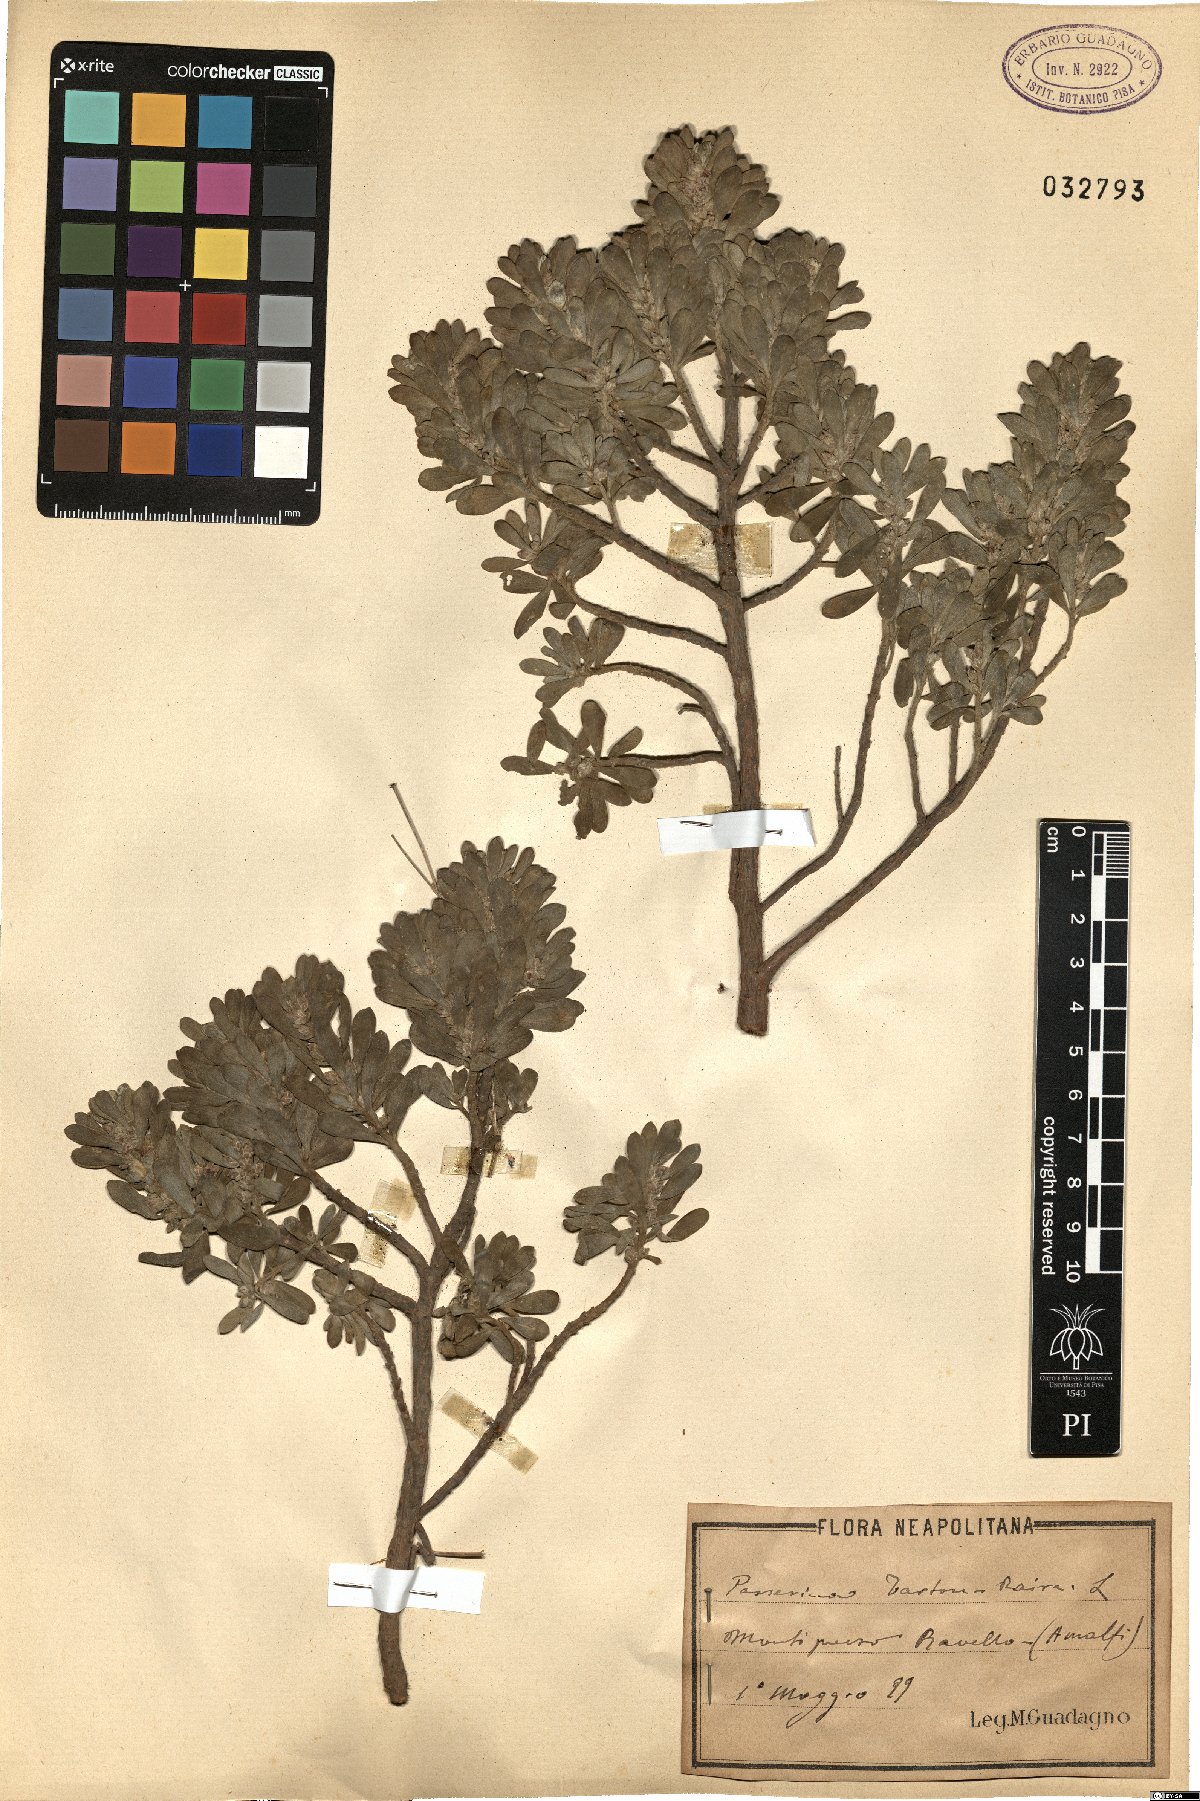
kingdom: Plantae
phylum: Tracheophyta
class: Magnoliopsida
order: Malvales
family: Thymelaeaceae
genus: Thymelaea
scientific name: Thymelaea tartonraira
